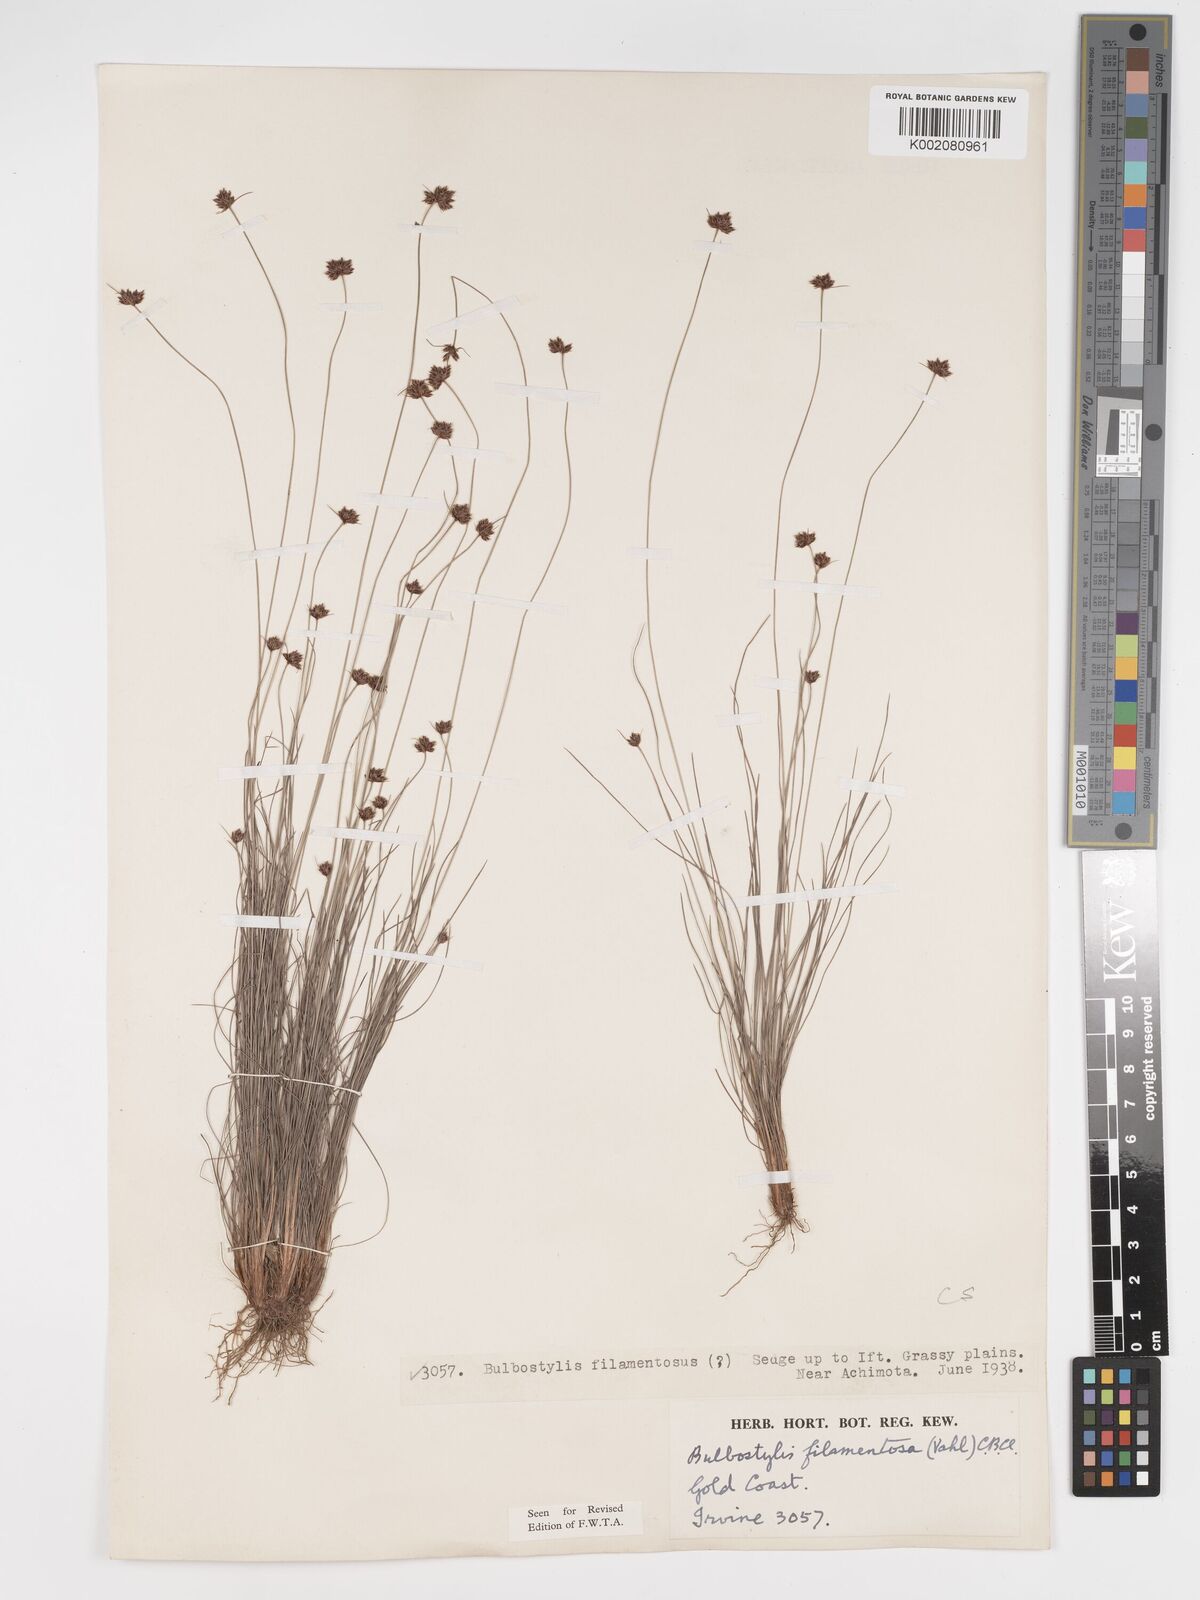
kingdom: Plantae
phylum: Tracheophyta
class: Liliopsida
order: Poales
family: Cyperaceae
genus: Bulbostylis
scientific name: Bulbostylis filamentosa
